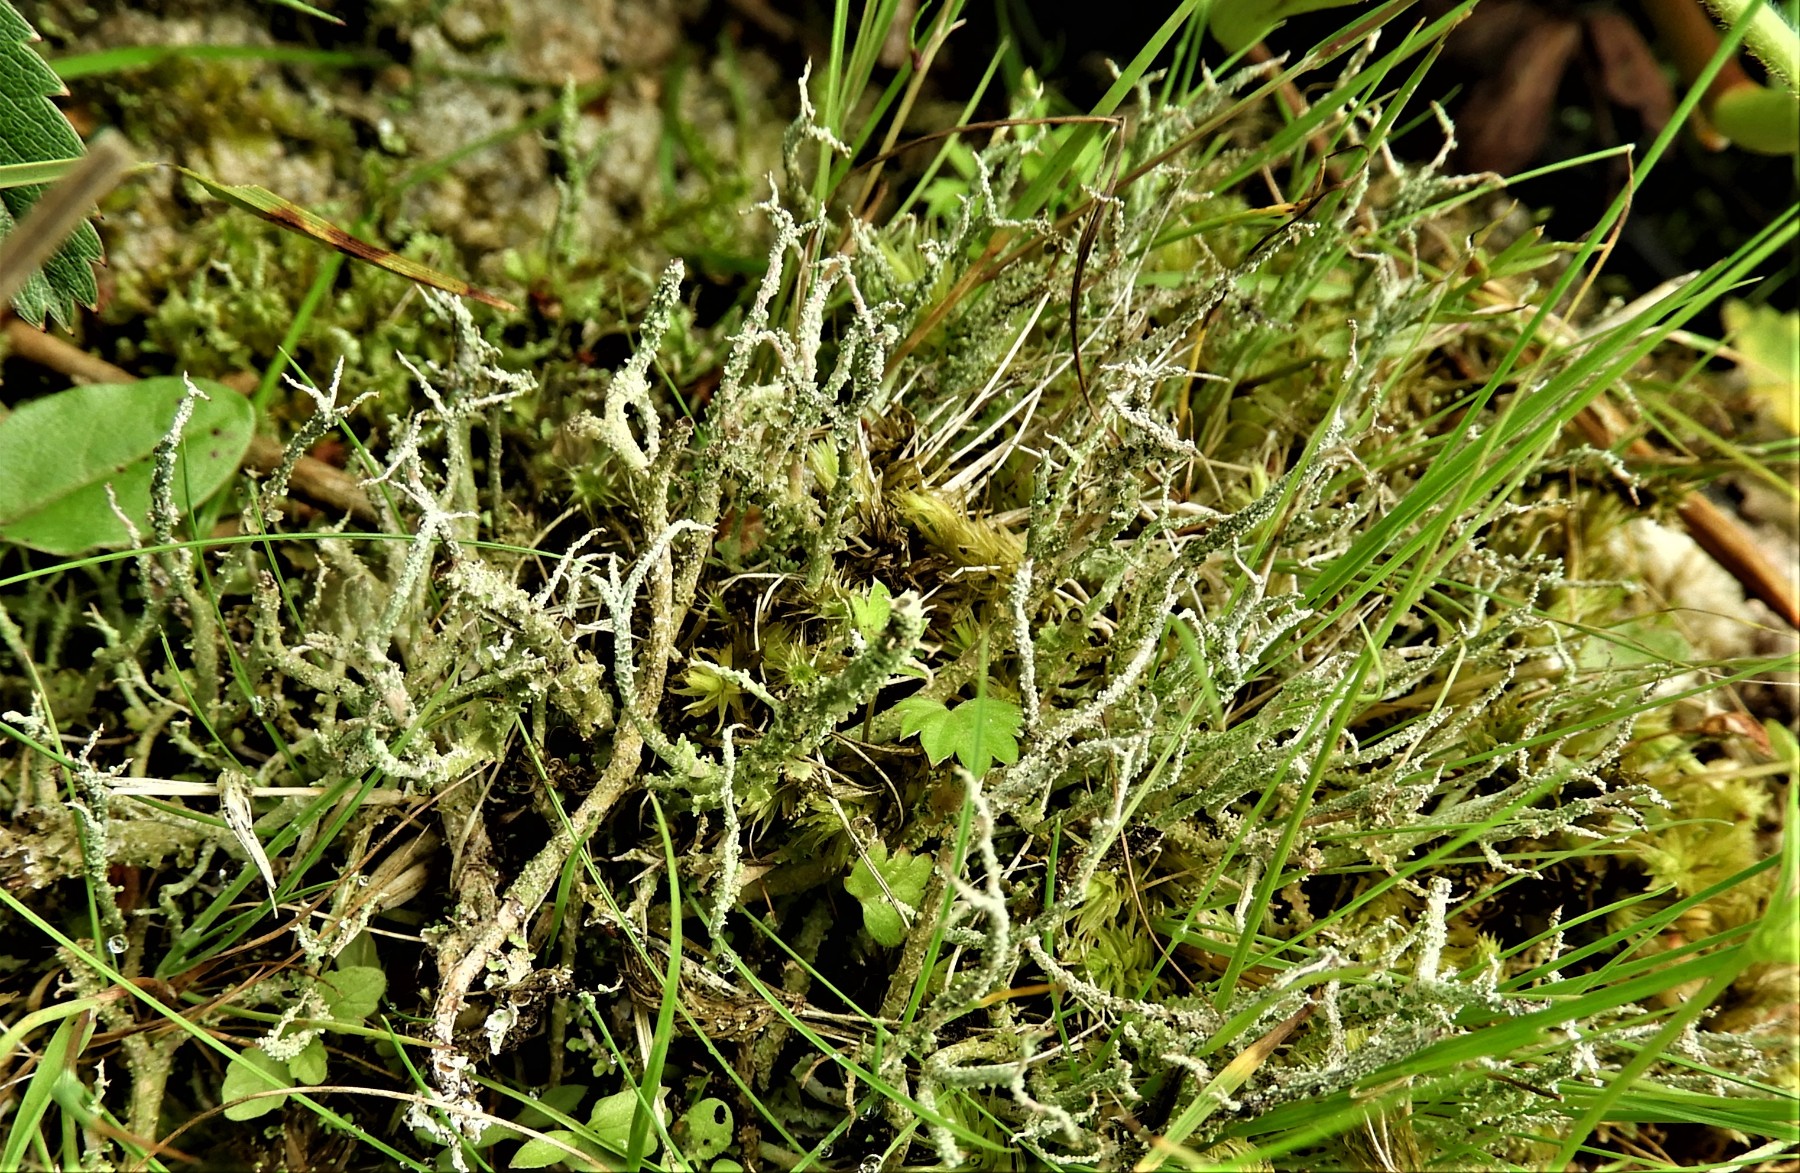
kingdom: Fungi
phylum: Ascomycota
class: Lecanoromycetes
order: Lecanorales
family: Cladoniaceae
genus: Cladonia
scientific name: Cladonia scabriuscula
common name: ru bægerlav
